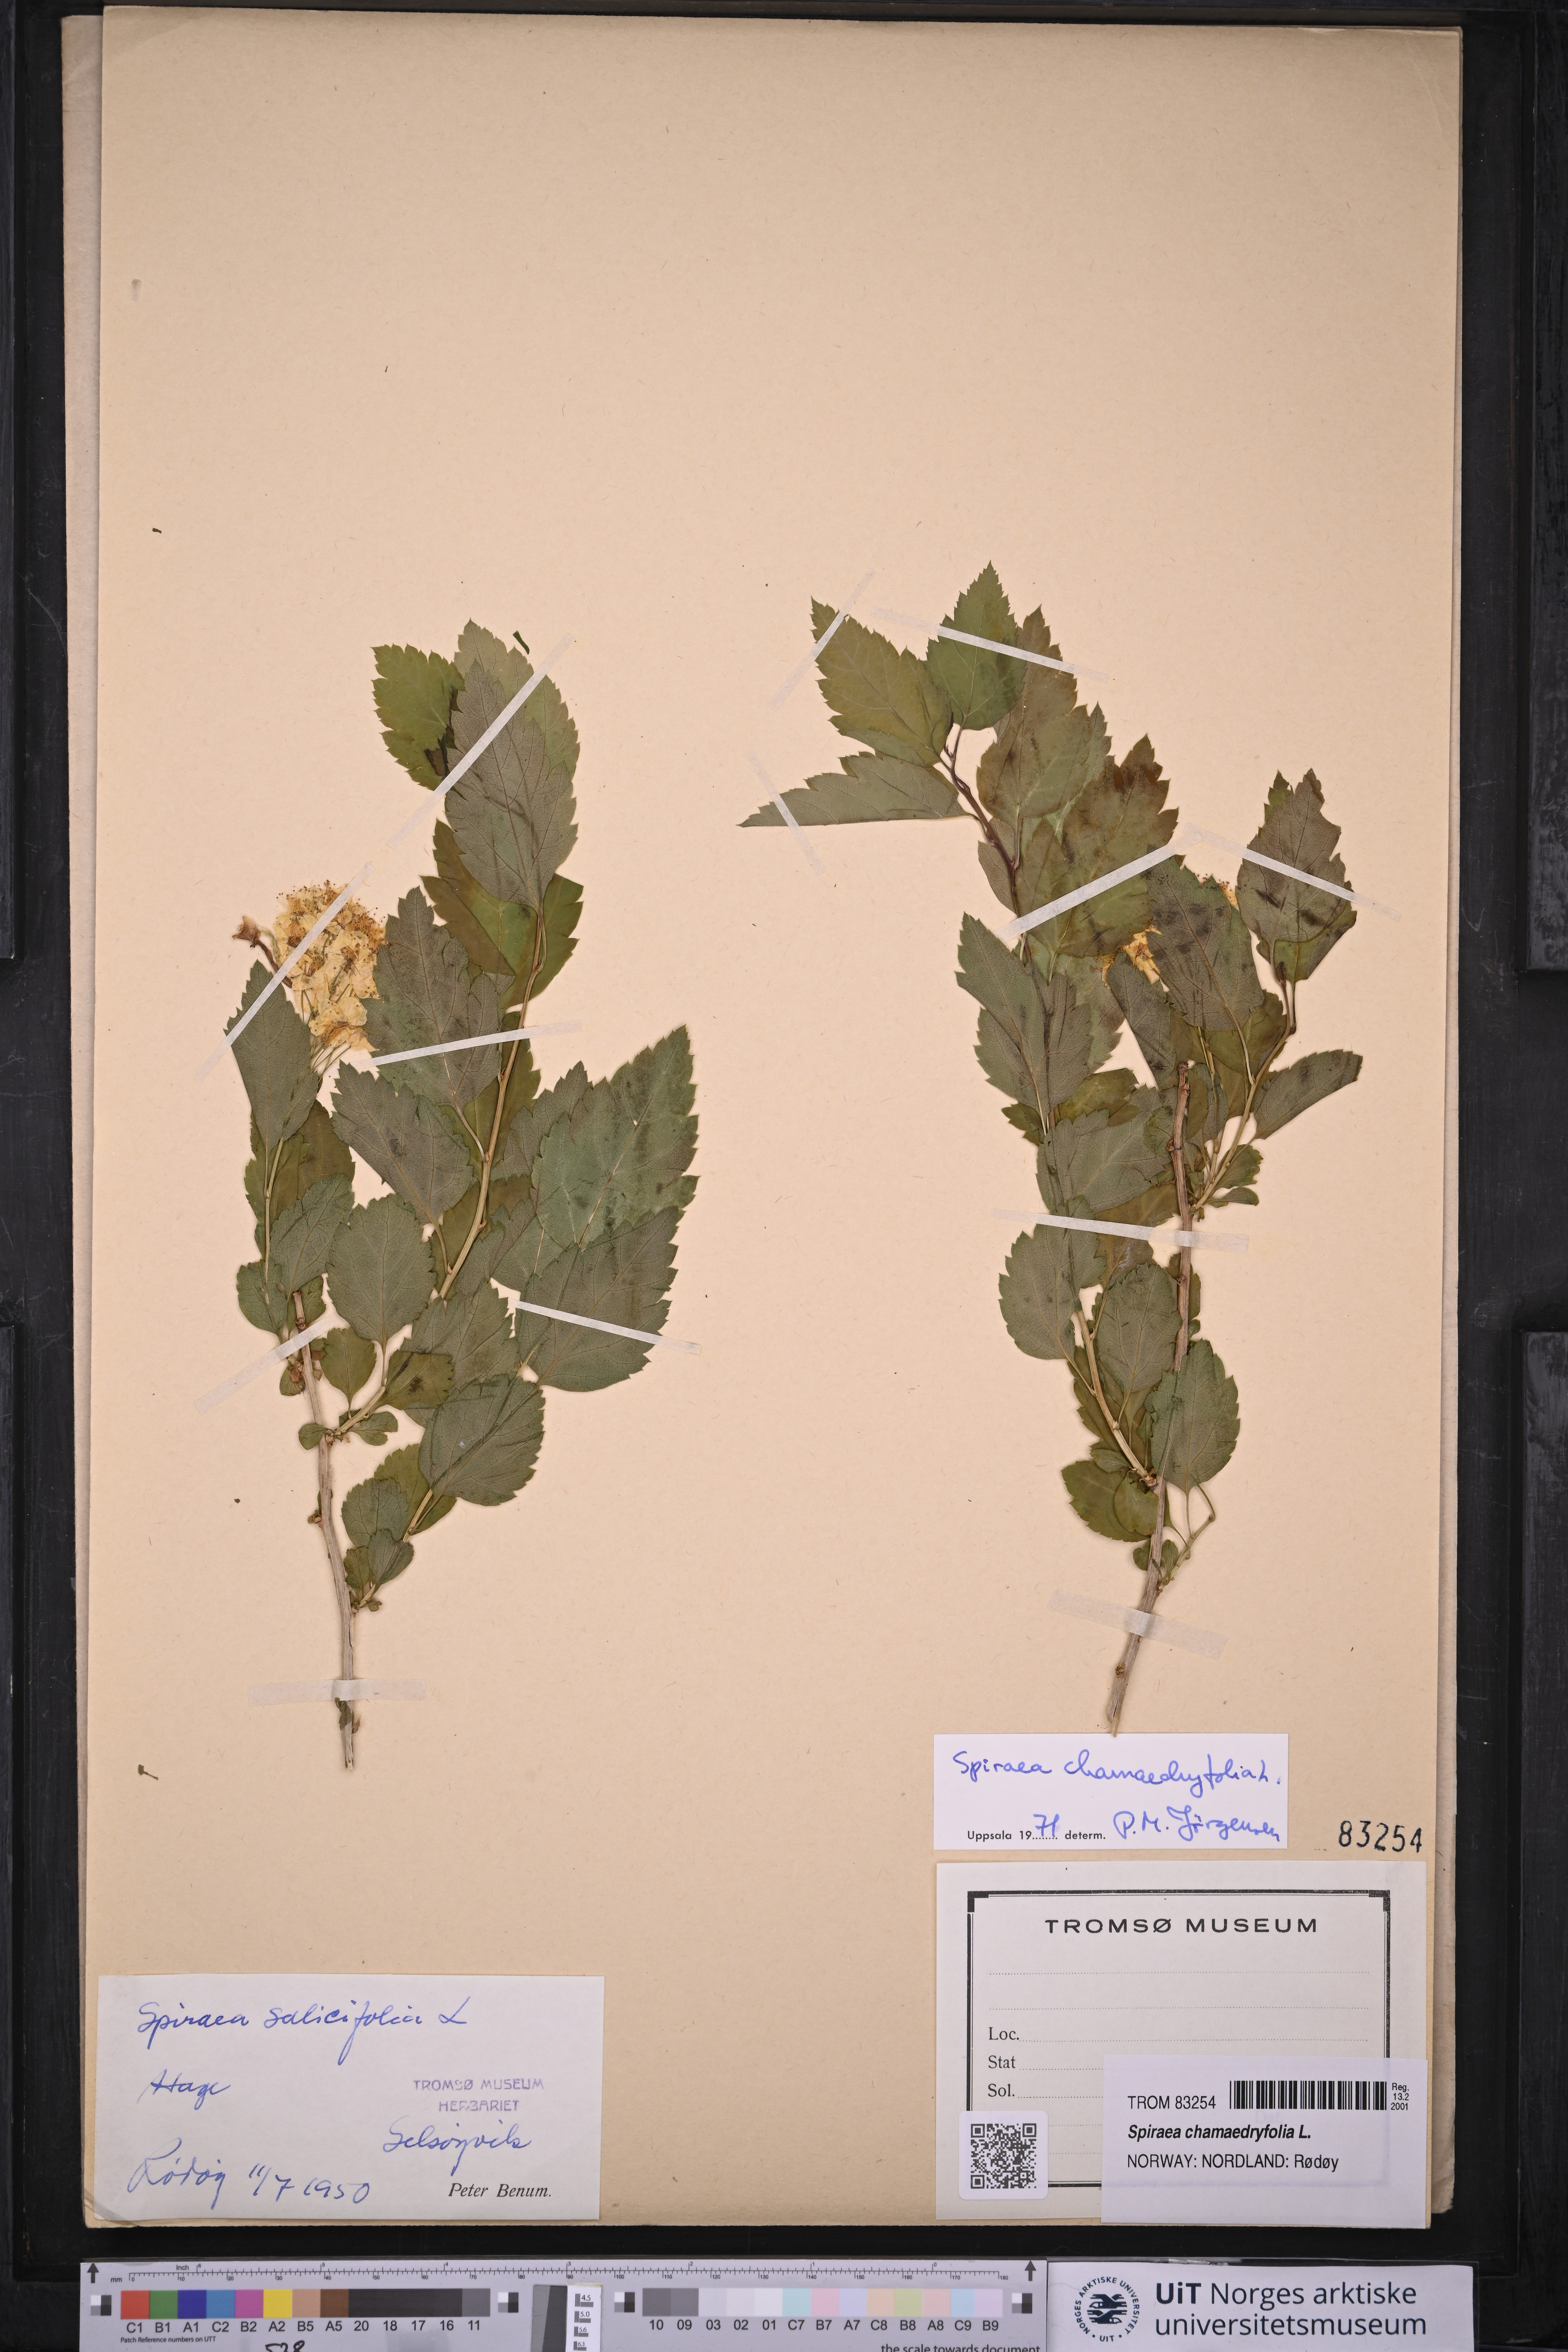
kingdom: Plantae
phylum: Tracheophyta
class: Magnoliopsida
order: Rosales
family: Rosaceae
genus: Spiraea
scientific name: Spiraea chamaedryfolia
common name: Elm-leaved spiraea
